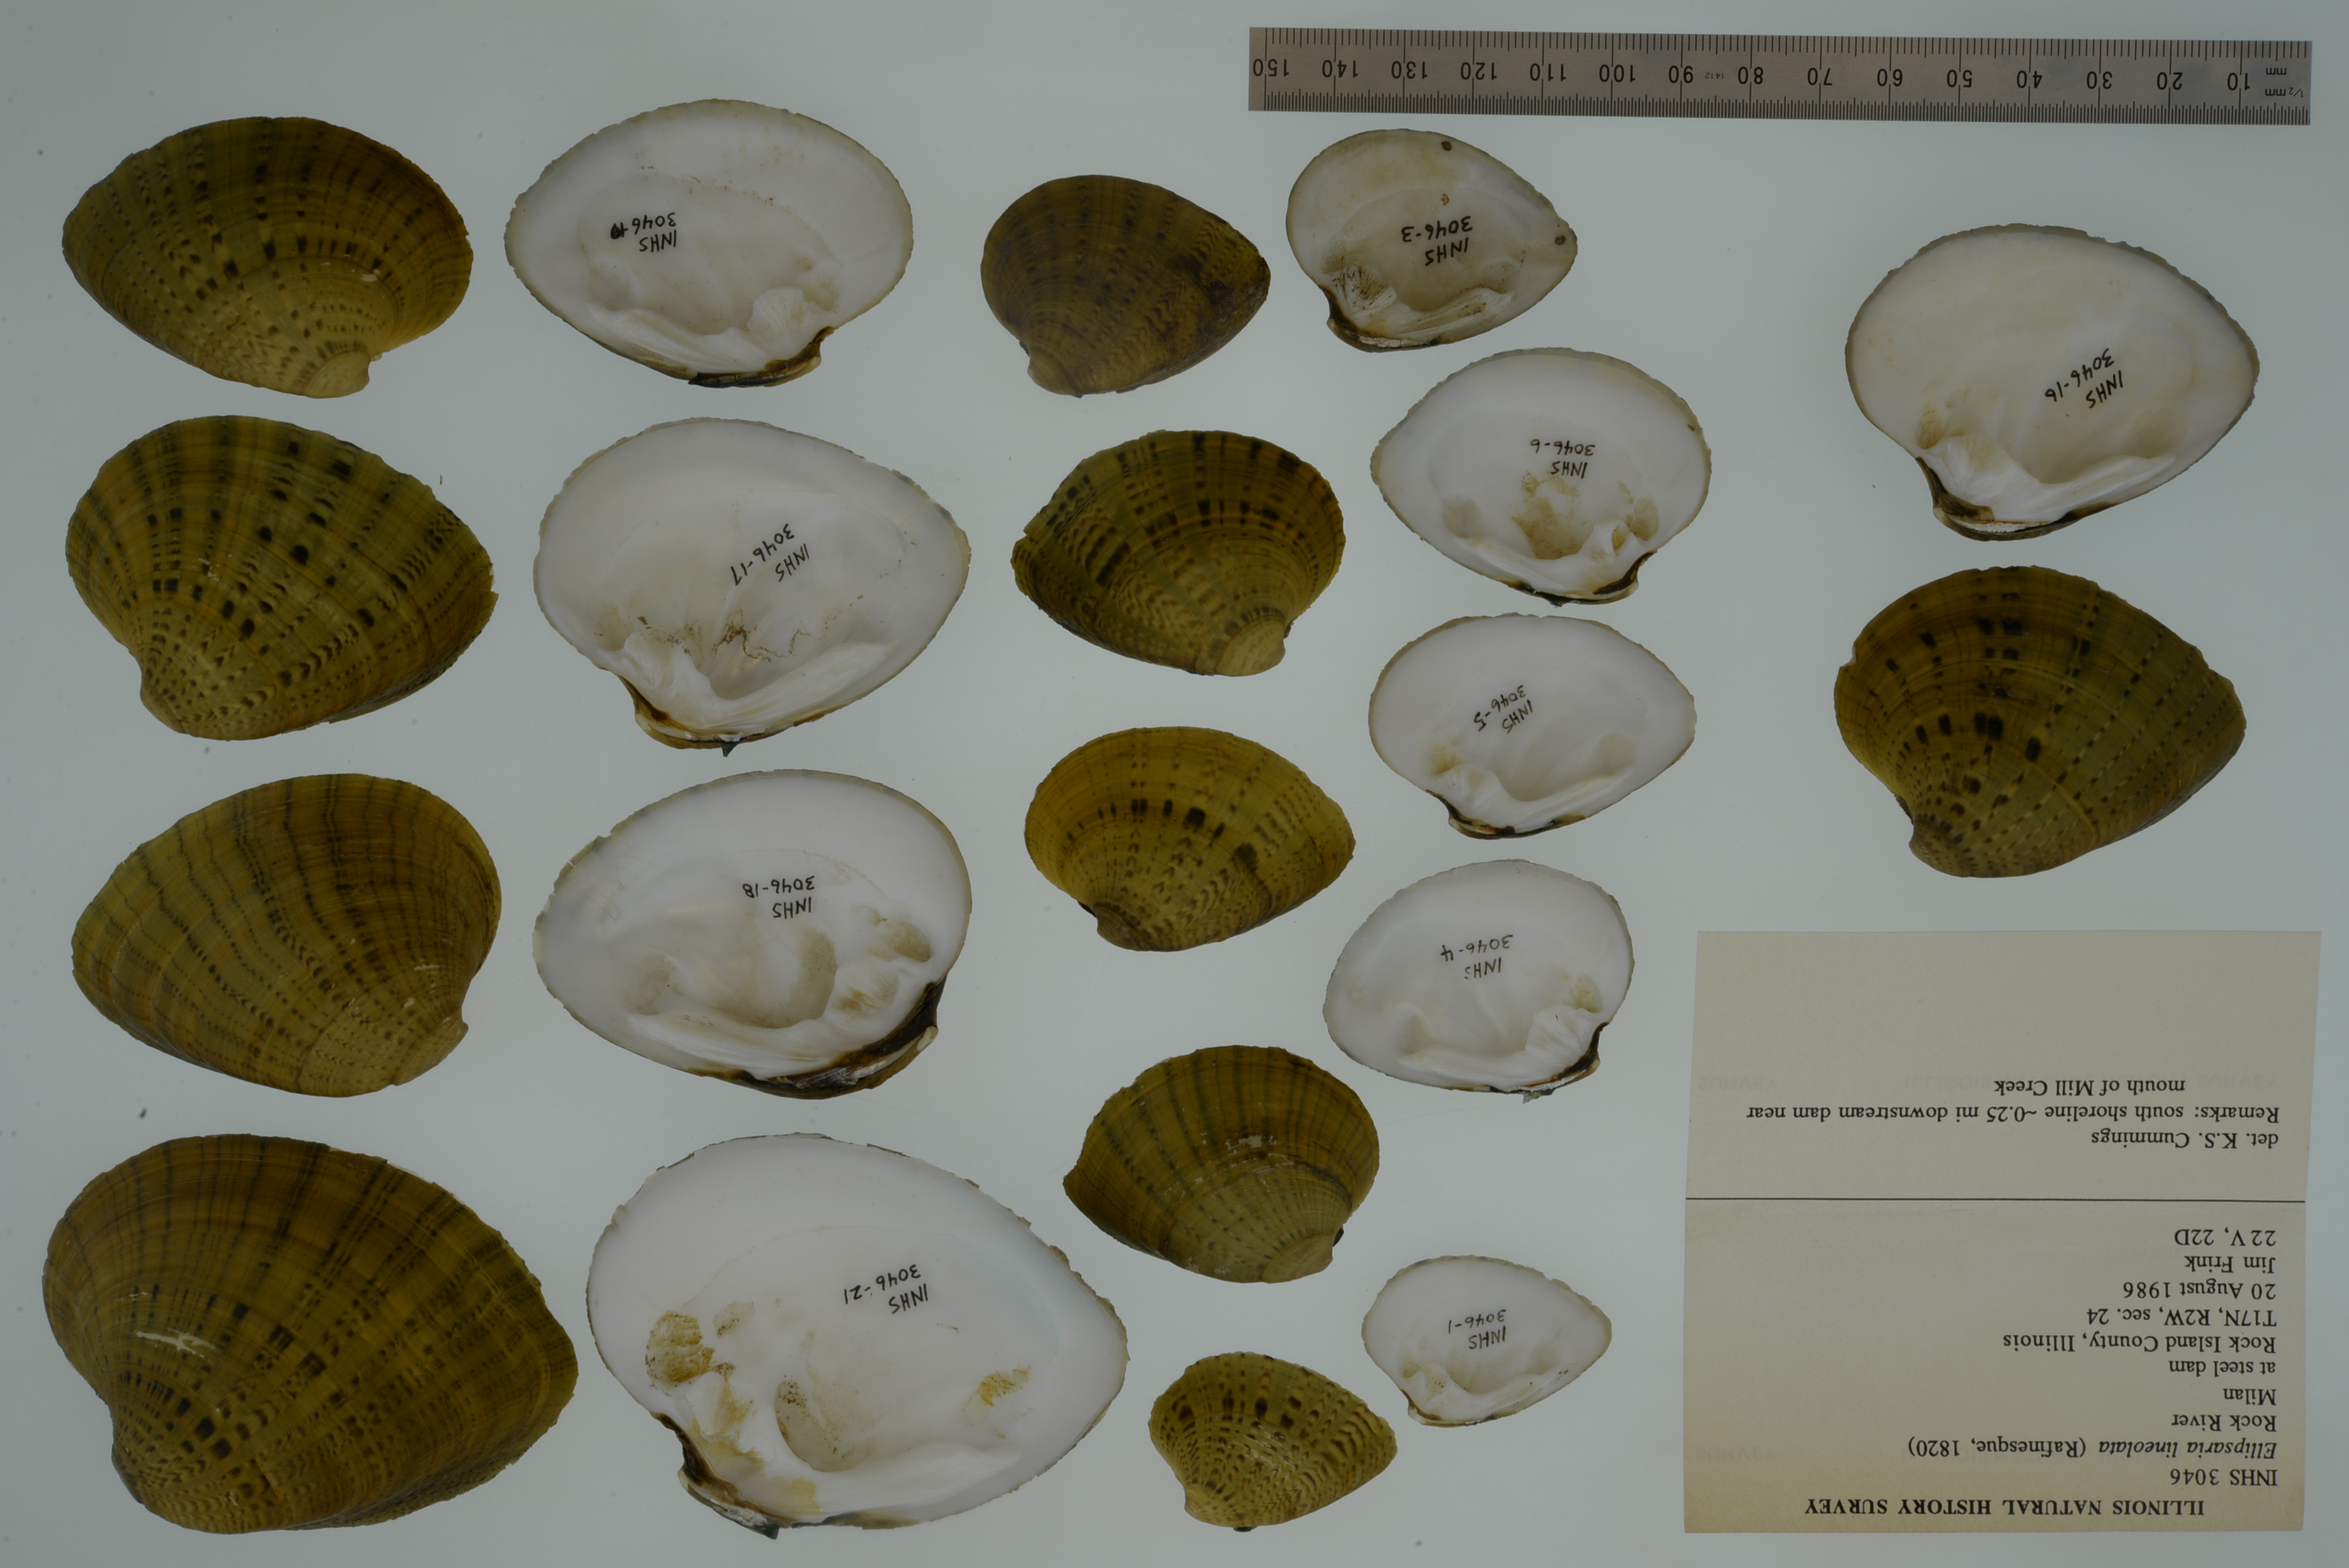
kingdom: Animalia
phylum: Mollusca
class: Bivalvia
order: Unionida
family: Unionidae
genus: Ellipsaria
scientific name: Ellipsaria lineolata
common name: Butterfly
